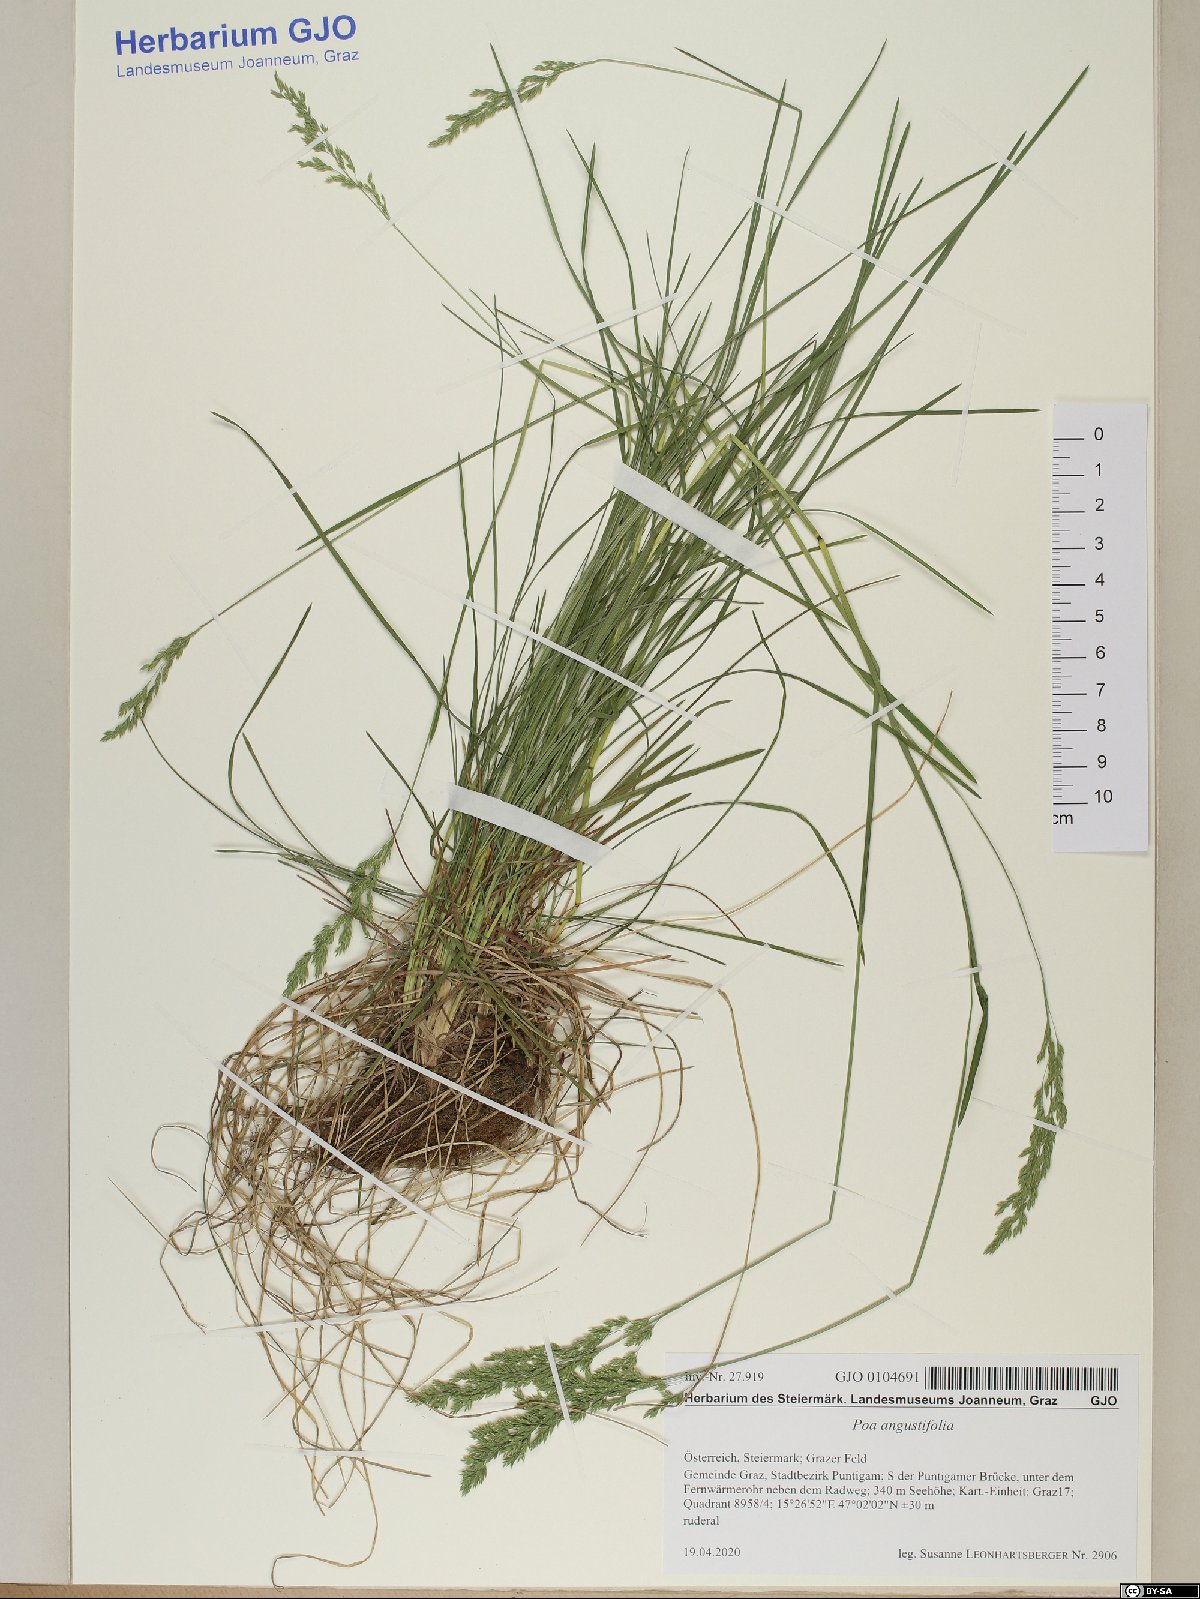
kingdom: Plantae
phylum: Tracheophyta
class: Liliopsida
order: Poales
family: Poaceae
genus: Poa
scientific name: Poa angustifolia
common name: Narrow-leaved meadow-grass
